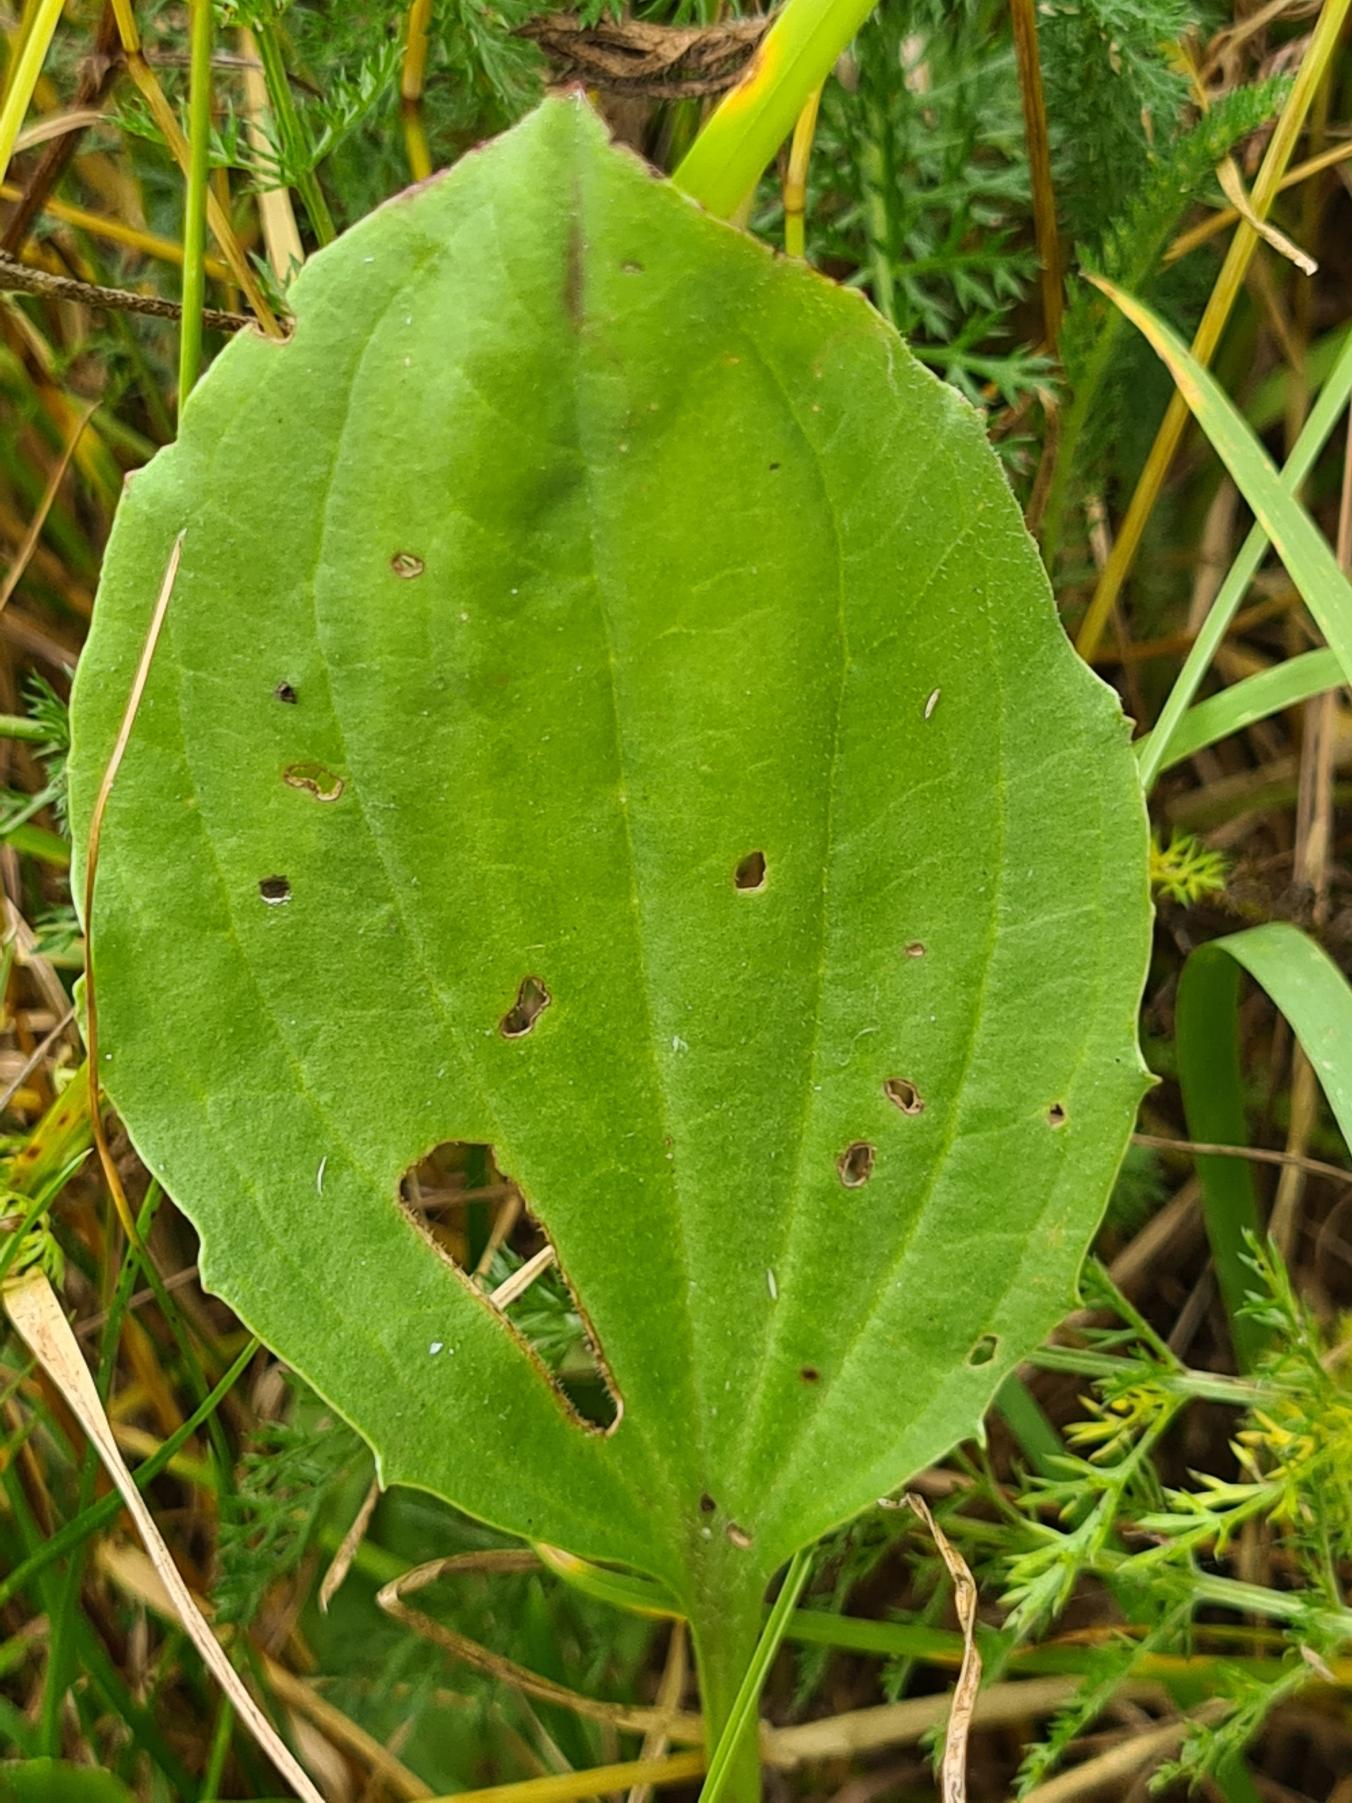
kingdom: Plantae
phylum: Tracheophyta
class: Magnoliopsida
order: Lamiales
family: Plantaginaceae
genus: Plantago
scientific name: Plantago major
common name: Glat vejbred
